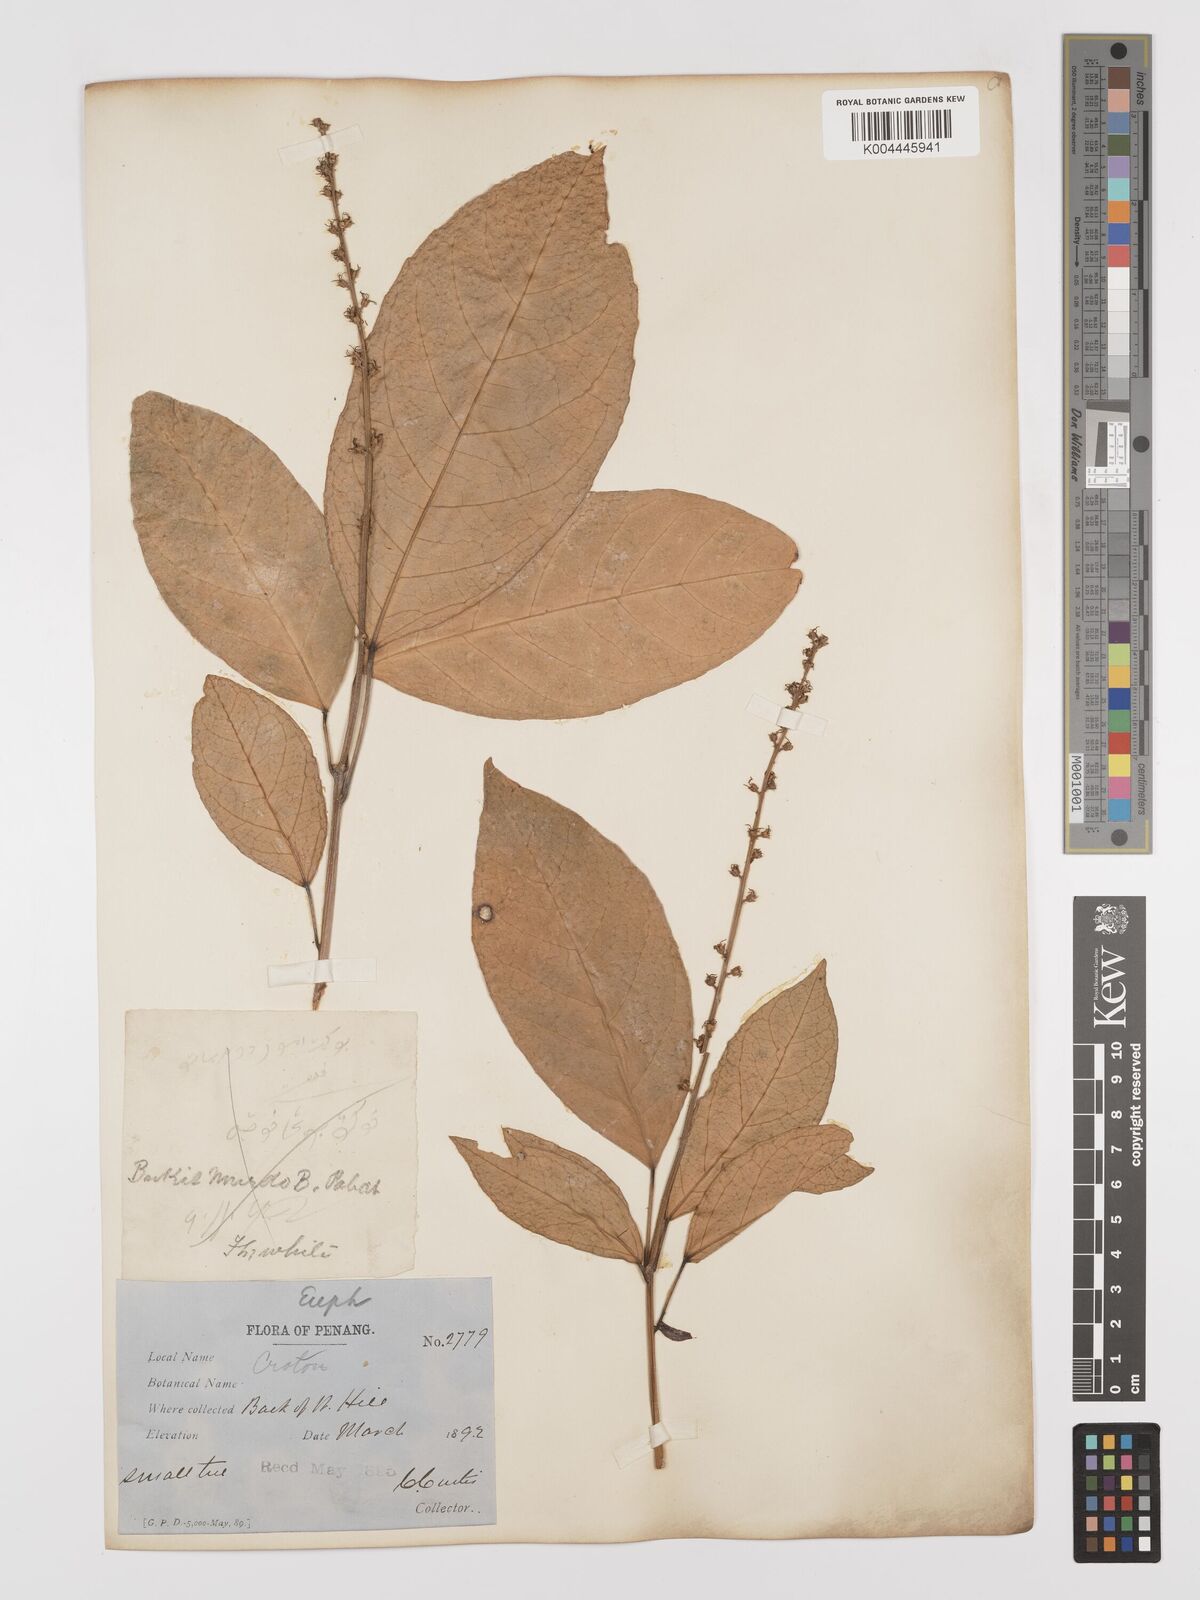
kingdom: Plantae
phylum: Tracheophyta
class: Magnoliopsida
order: Malpighiales
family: Euphorbiaceae
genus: Croton
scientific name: Croton griffithii
